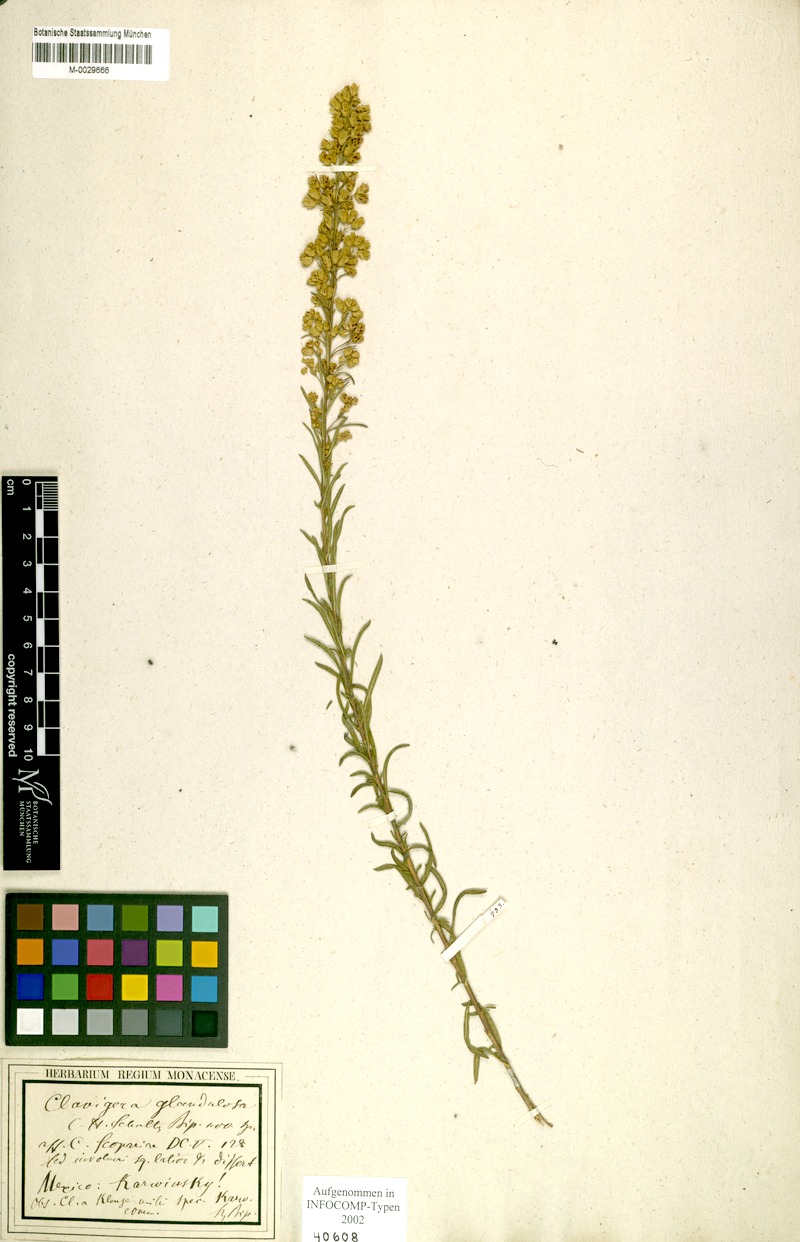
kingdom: Plantae
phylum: Tracheophyta
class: Magnoliopsida
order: Asterales
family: Asteraceae
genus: Brickellia
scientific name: Brickellia glandulosa
